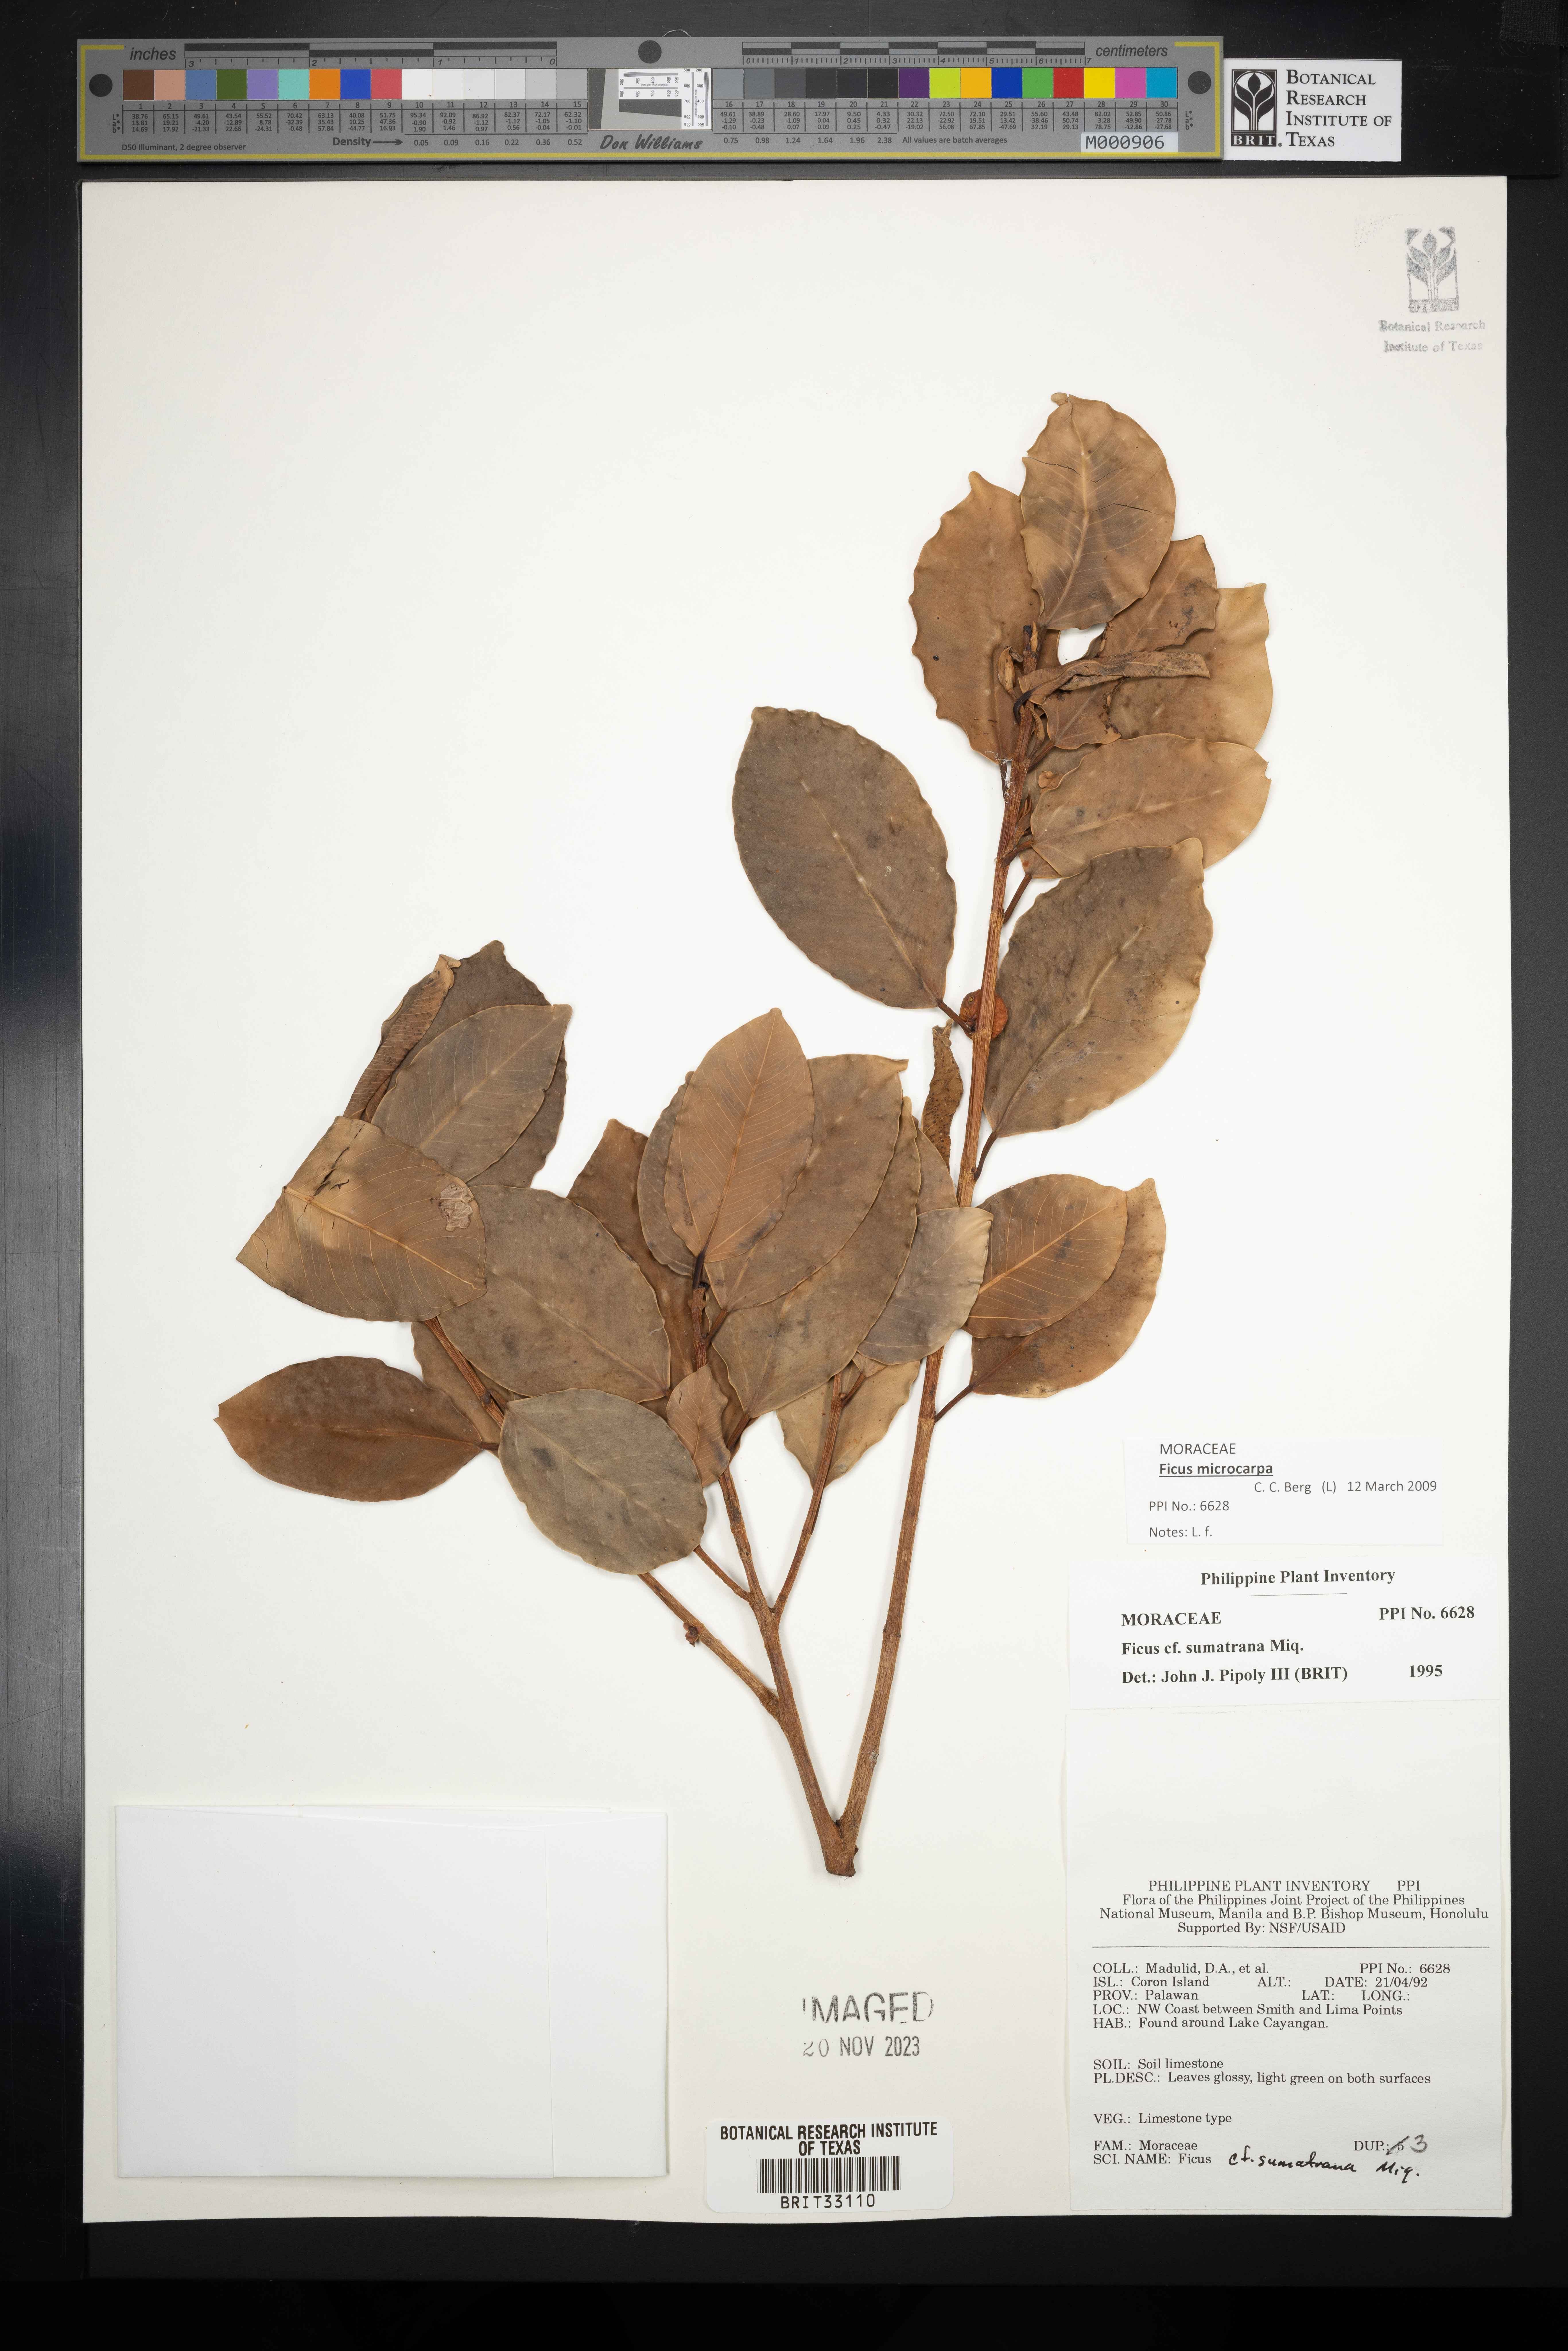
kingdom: Plantae
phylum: Tracheophyta
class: Magnoliopsida
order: Rosales
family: Moraceae
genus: Ficus
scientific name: Ficus sumatrana
